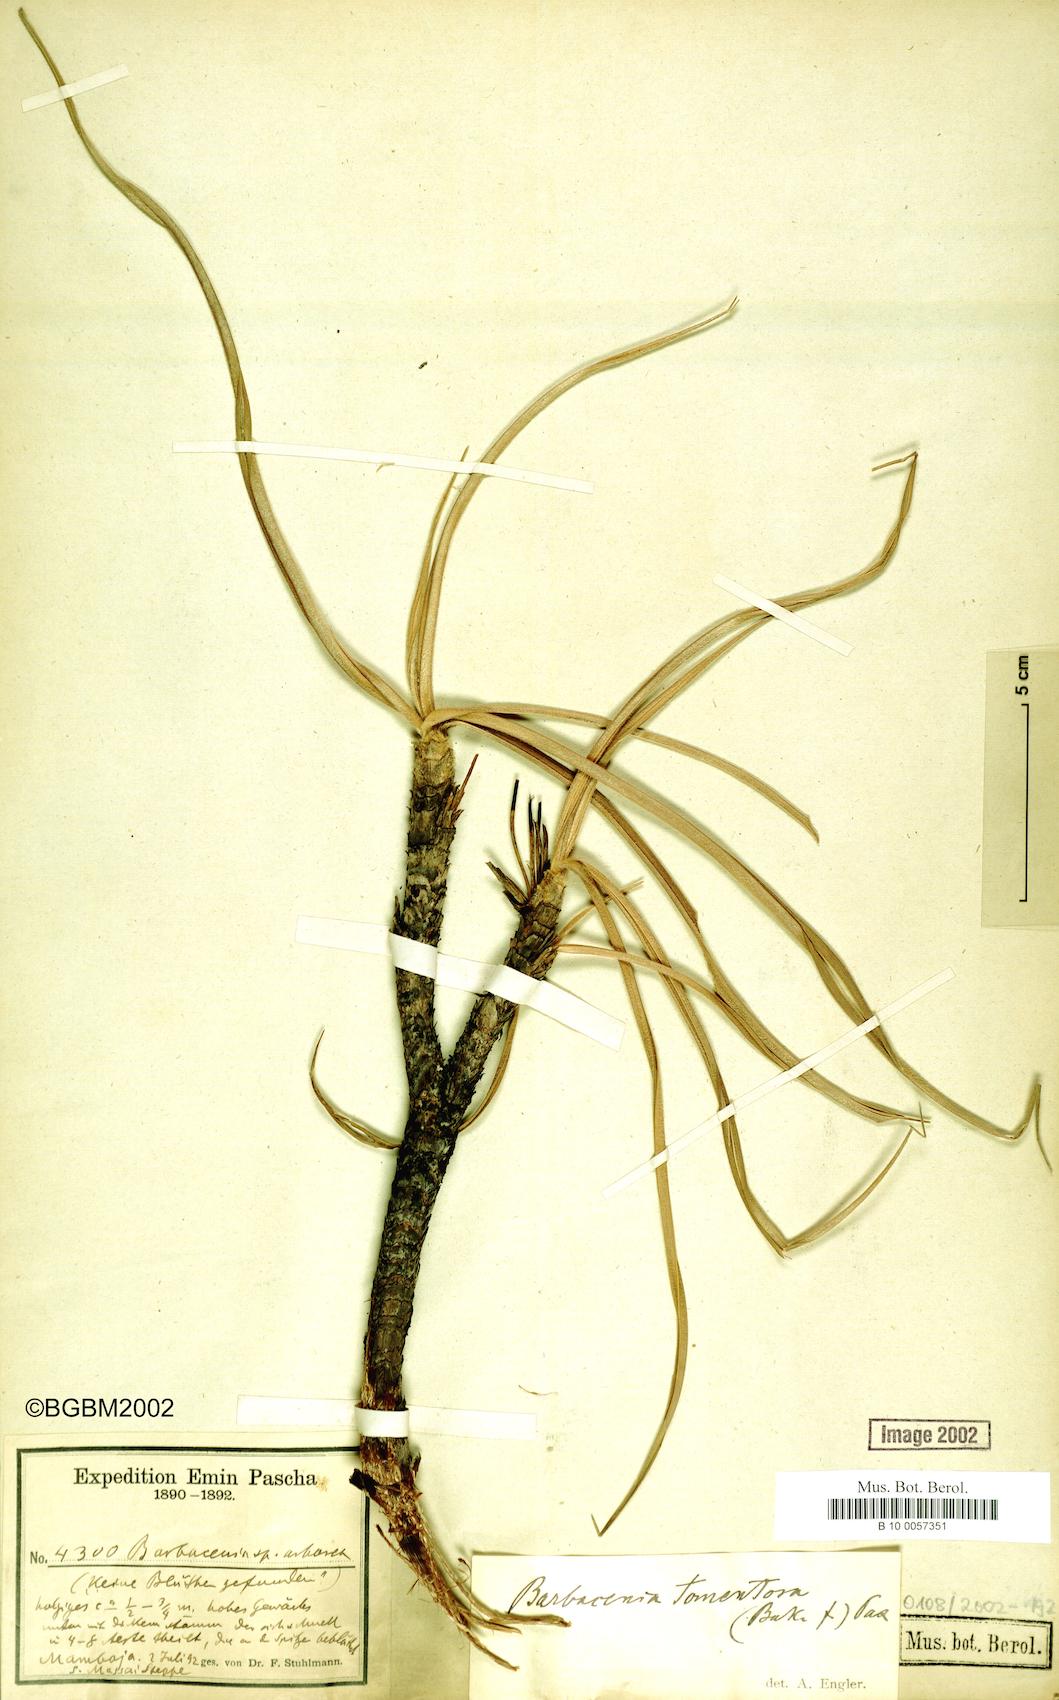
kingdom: Plantae
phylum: Tracheophyta
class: Liliopsida
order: Pandanales
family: Velloziaceae
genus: Xerophyta
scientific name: Xerophyta spekei
